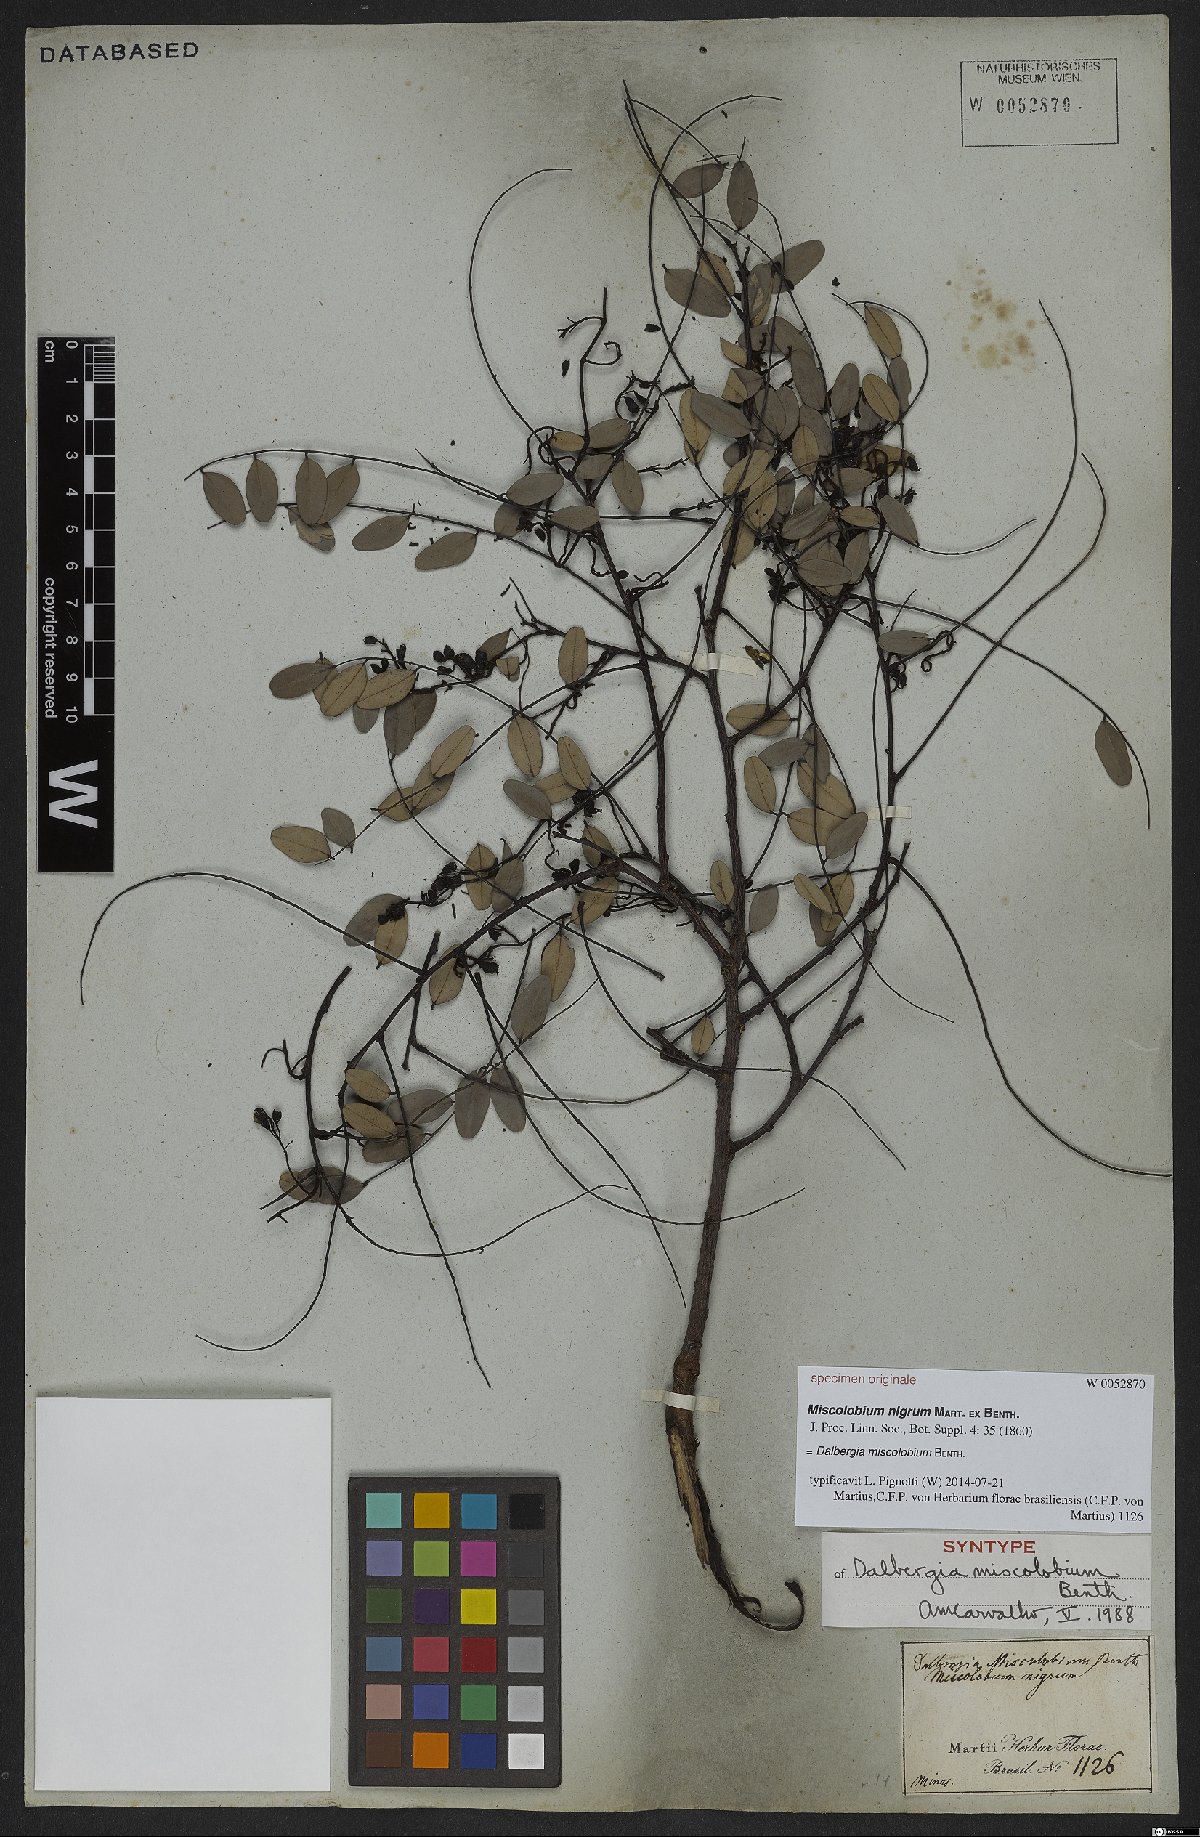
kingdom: Plantae
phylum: Tracheophyta
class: Magnoliopsida
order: Fabales
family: Fabaceae
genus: Dalbergia
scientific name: Dalbergia miscolobium
